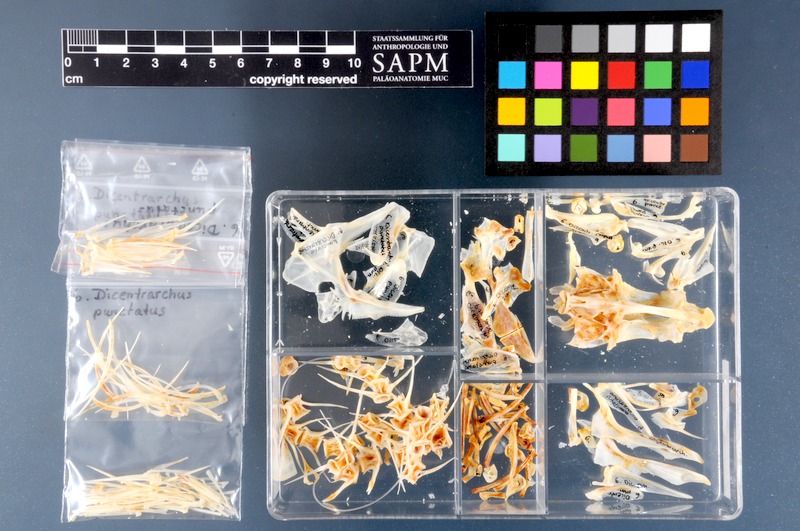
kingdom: Animalia
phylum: Chordata
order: Perciformes
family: Moronidae
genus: Dicentrarchus
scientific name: Dicentrarchus punctatus
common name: Black-spotted bass
